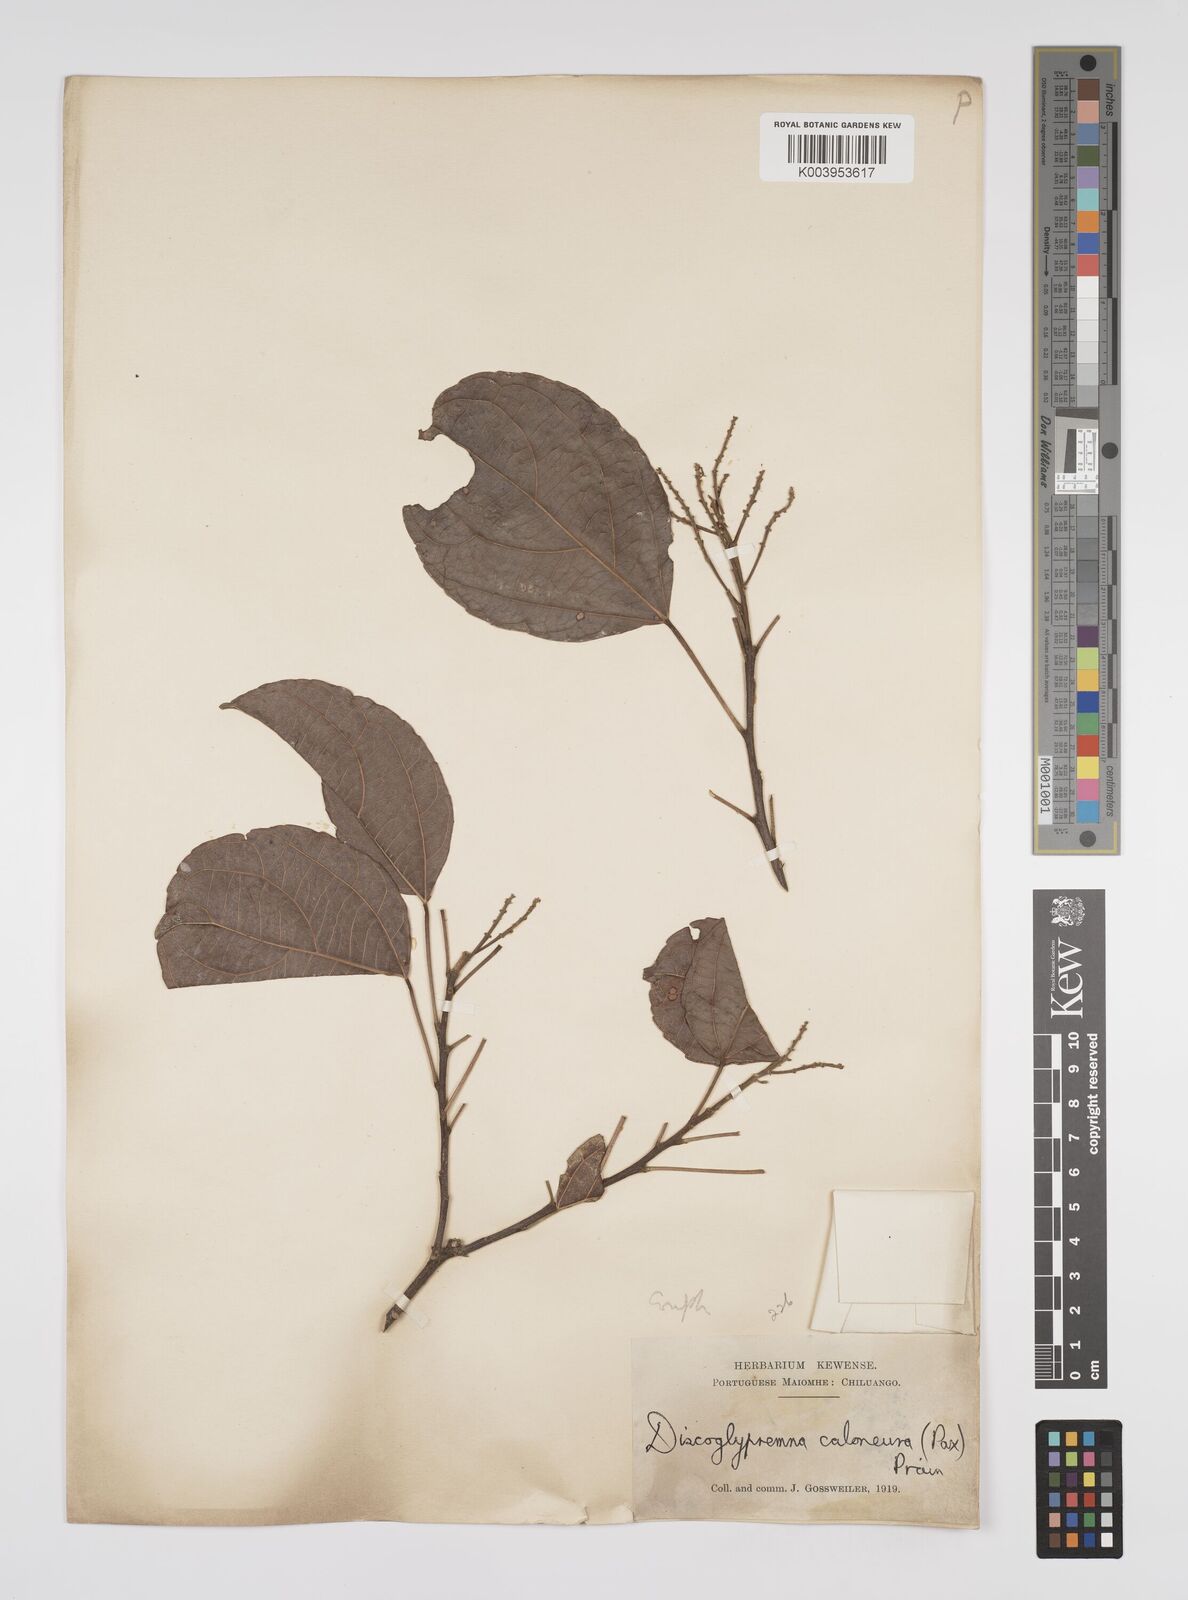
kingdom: Plantae
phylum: Tracheophyta
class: Magnoliopsida
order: Malpighiales
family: Euphorbiaceae
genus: Discoglypremna
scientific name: Discoglypremna caloneura
